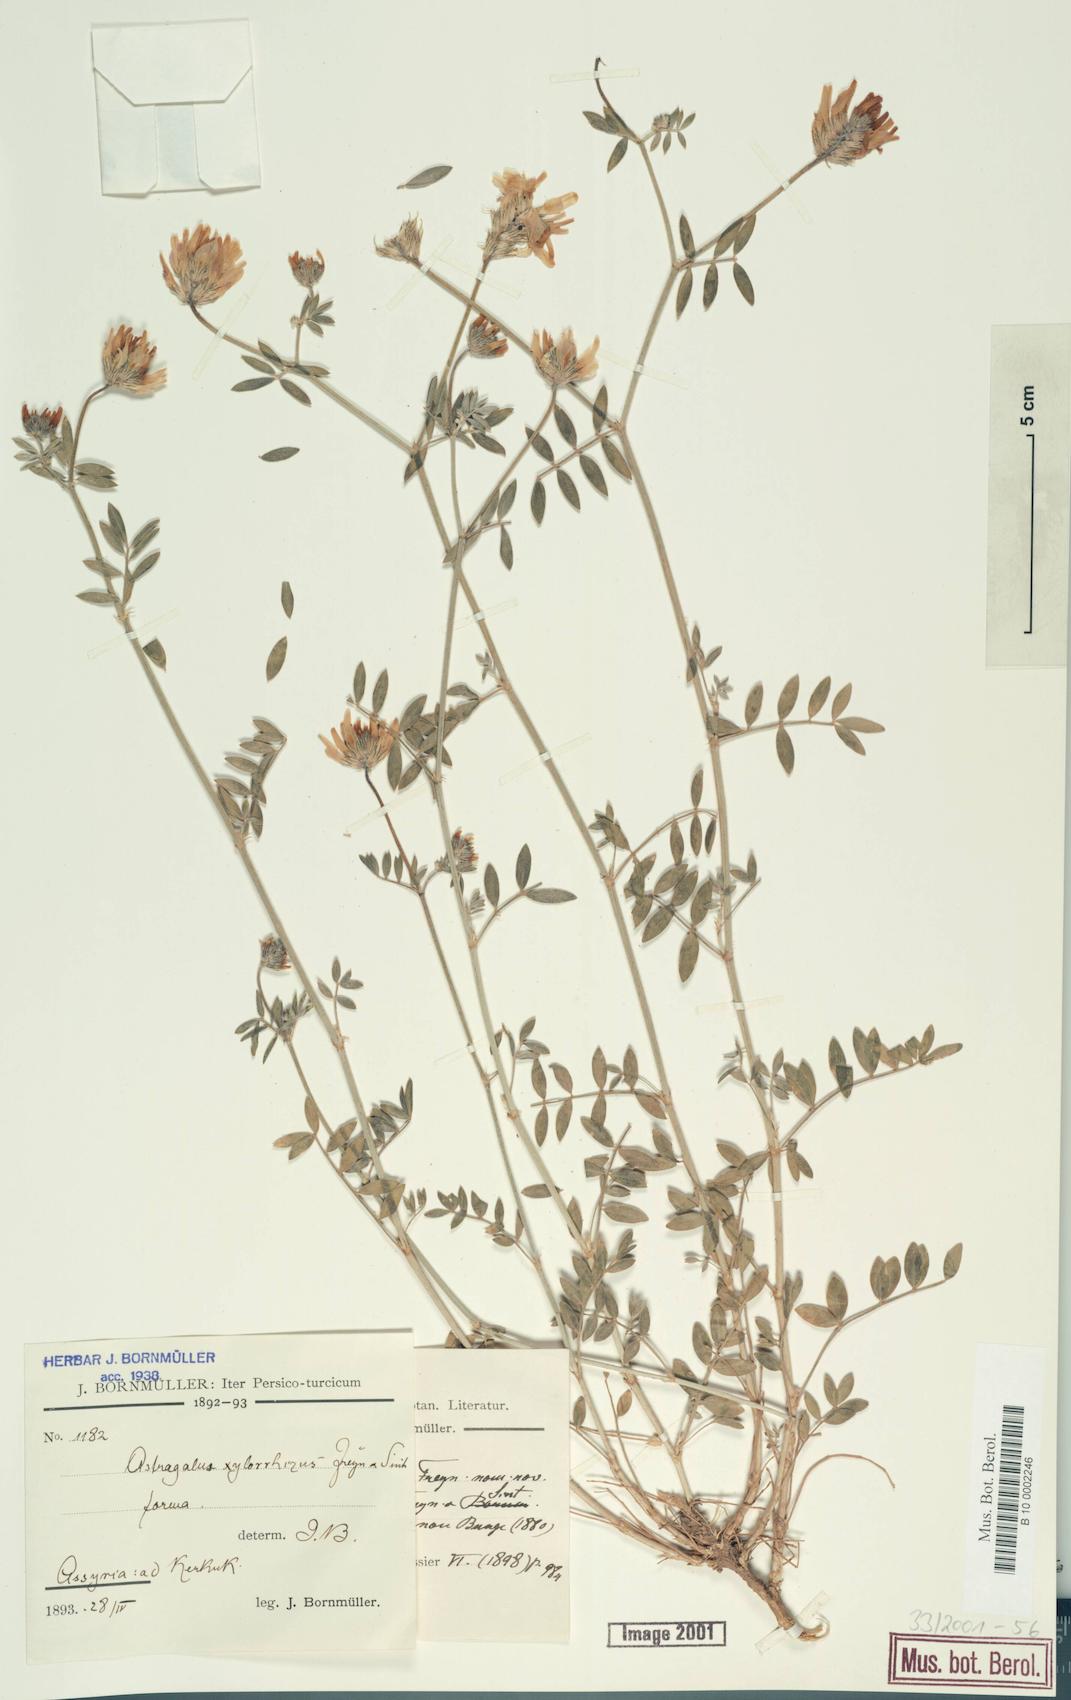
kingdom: Plantae
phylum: Tracheophyta
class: Magnoliopsida
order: Fabales
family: Fabaceae
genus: Astragalus
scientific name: Astragalus aduncus
